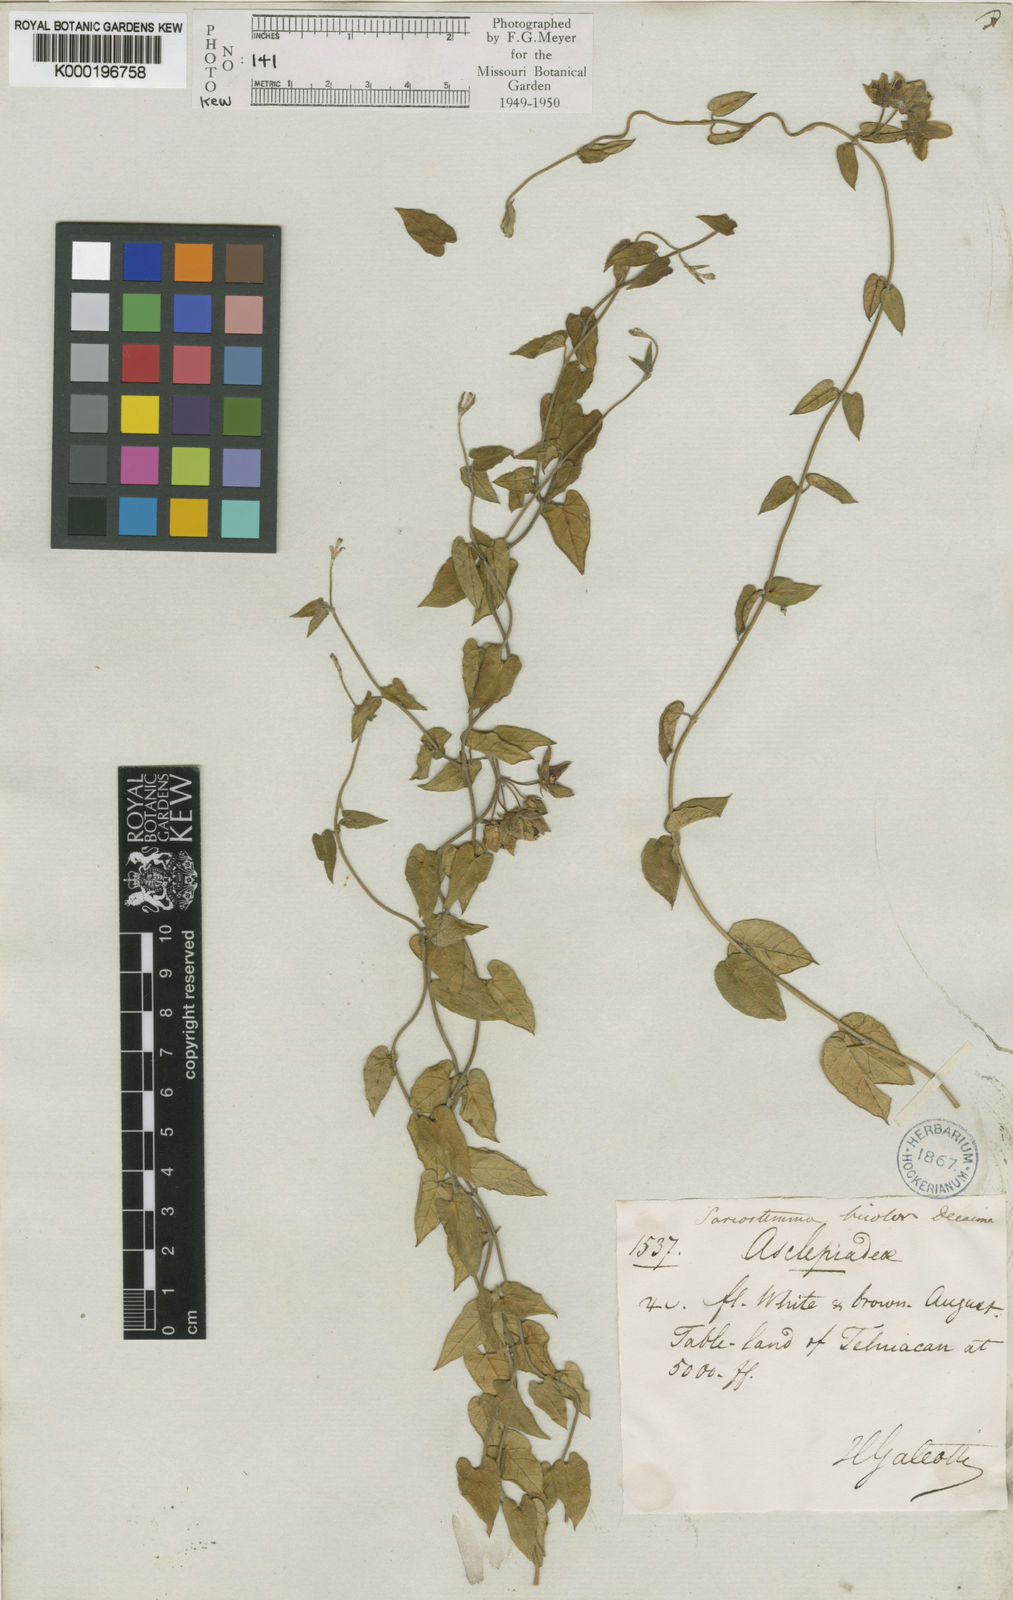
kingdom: Plantae
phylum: Tracheophyta
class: Magnoliopsida
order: Gentianales
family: Apocynaceae
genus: Funastrum
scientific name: Funastrum elegans
